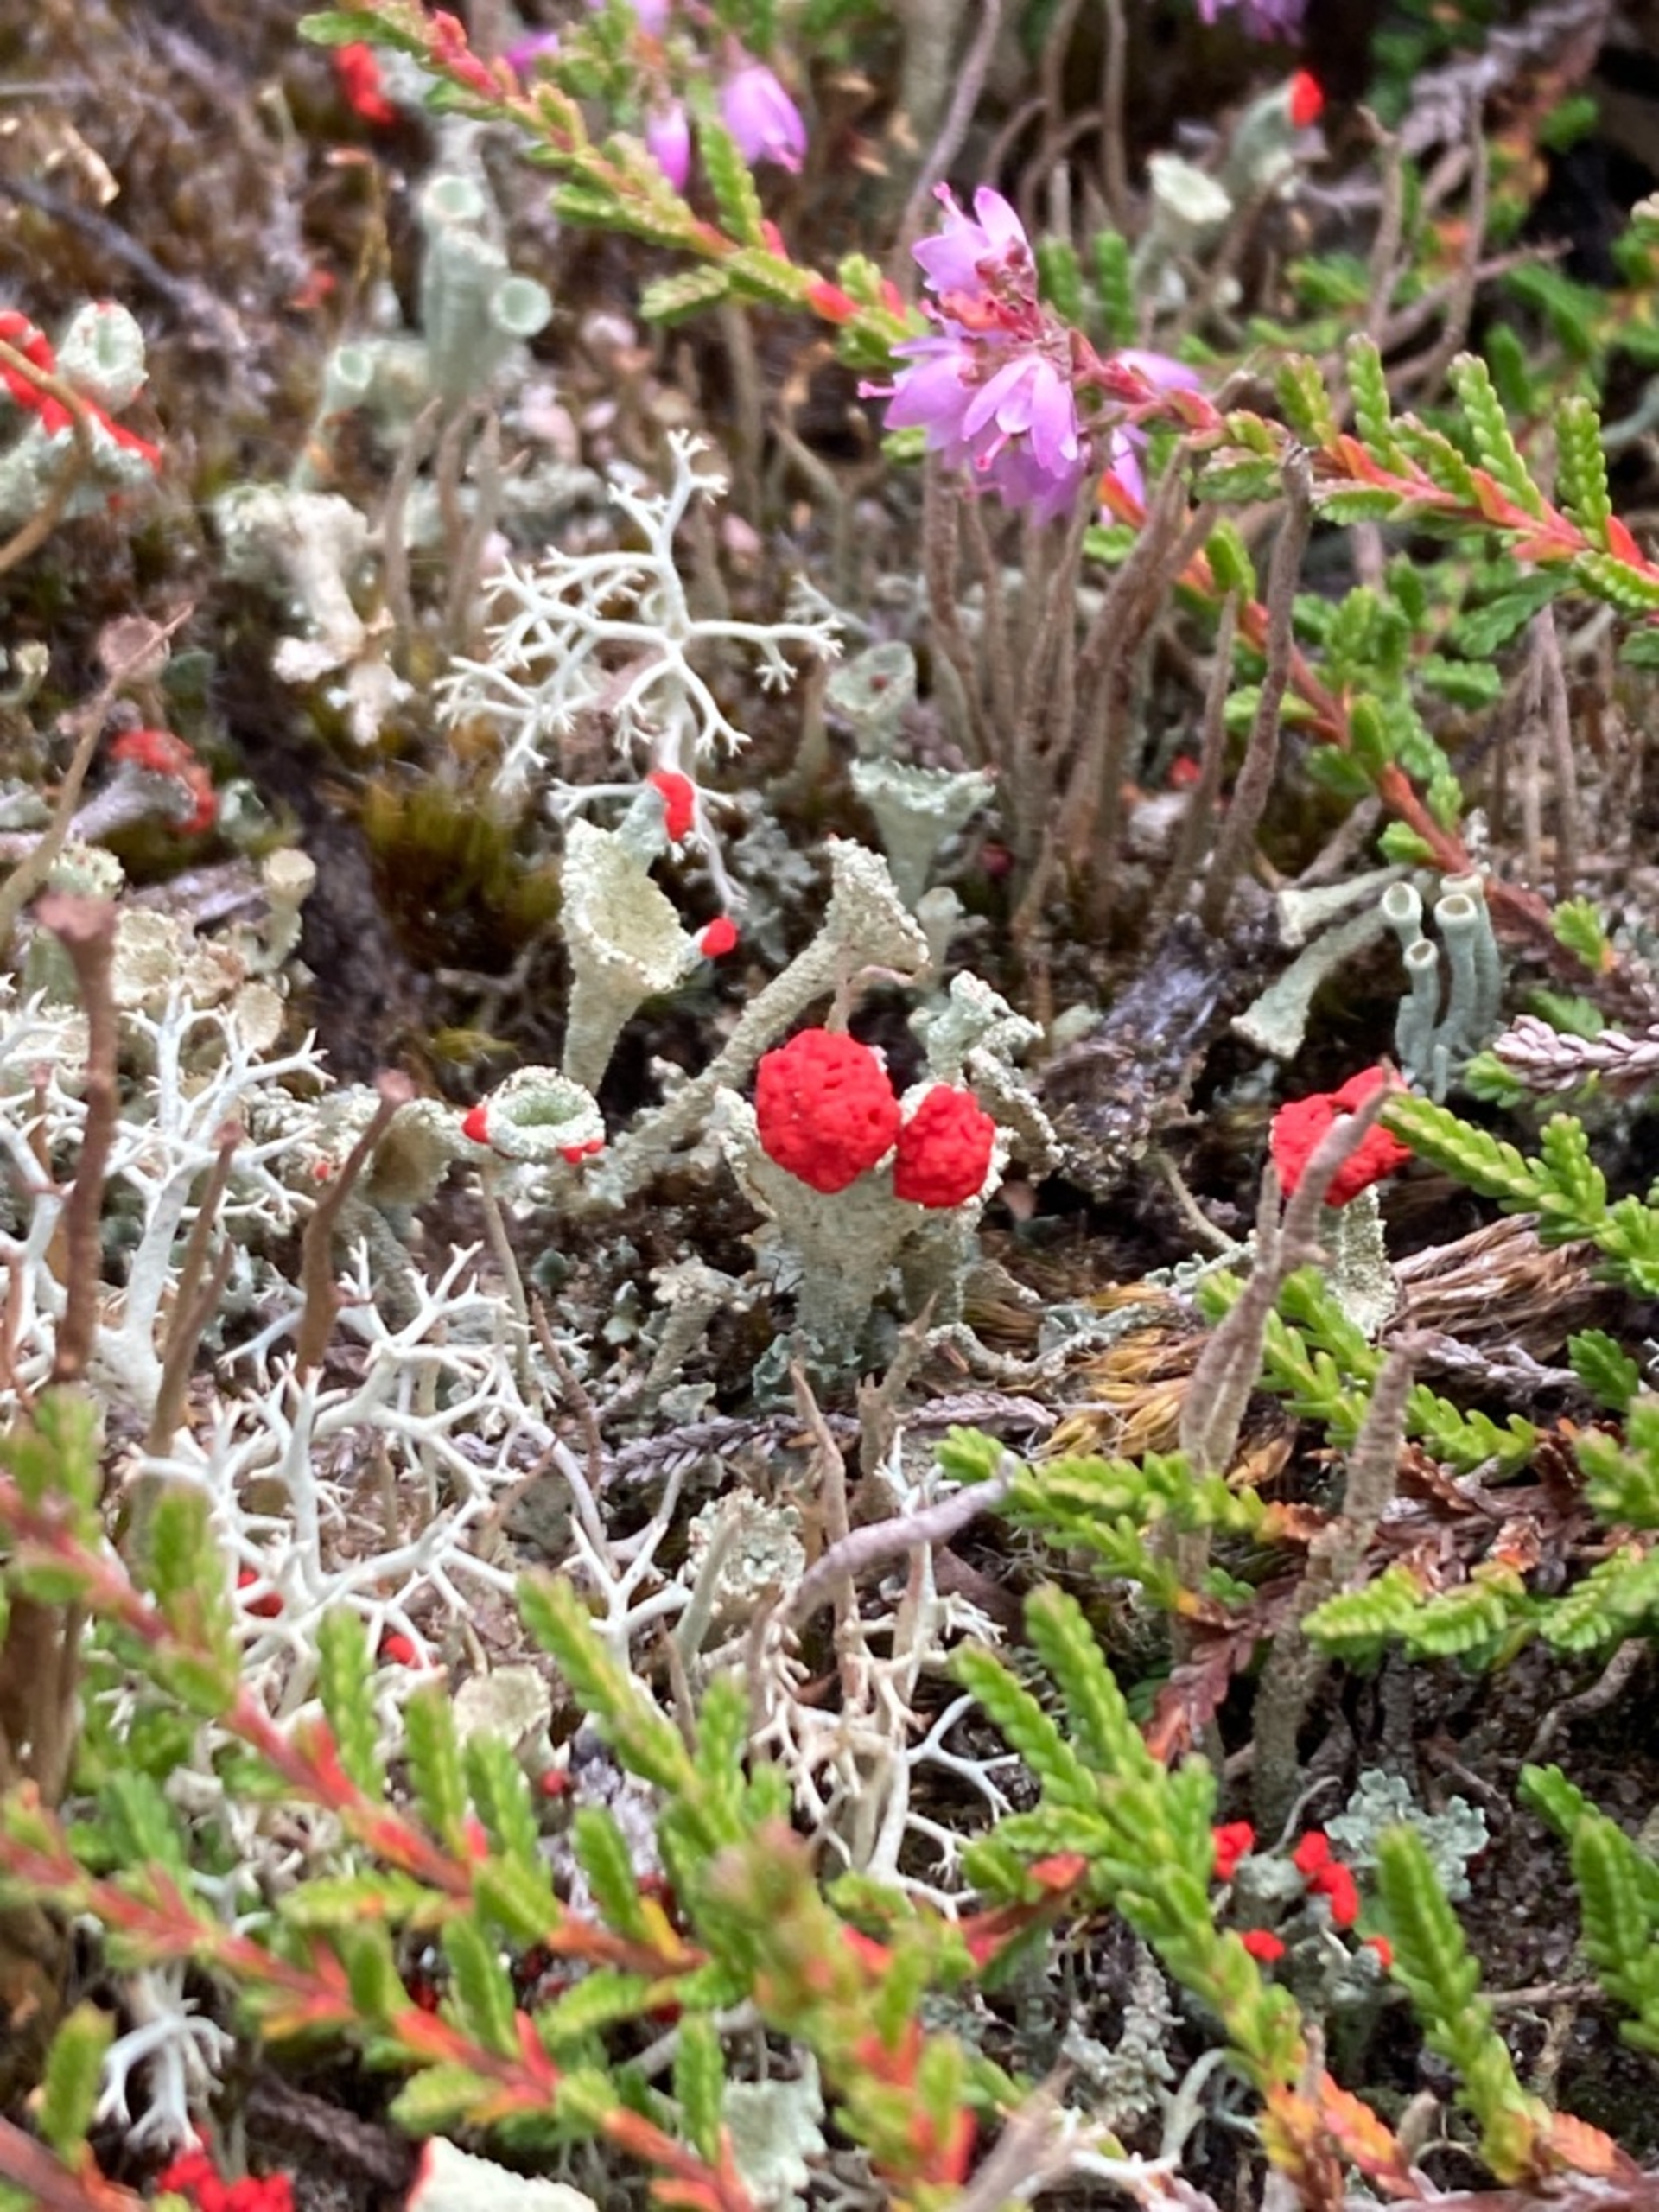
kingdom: Fungi
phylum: Ascomycota
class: Lecanoromycetes
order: Lecanorales
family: Cladoniaceae
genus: Cladonia
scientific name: Cladonia diversa
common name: Rød bægerlav
